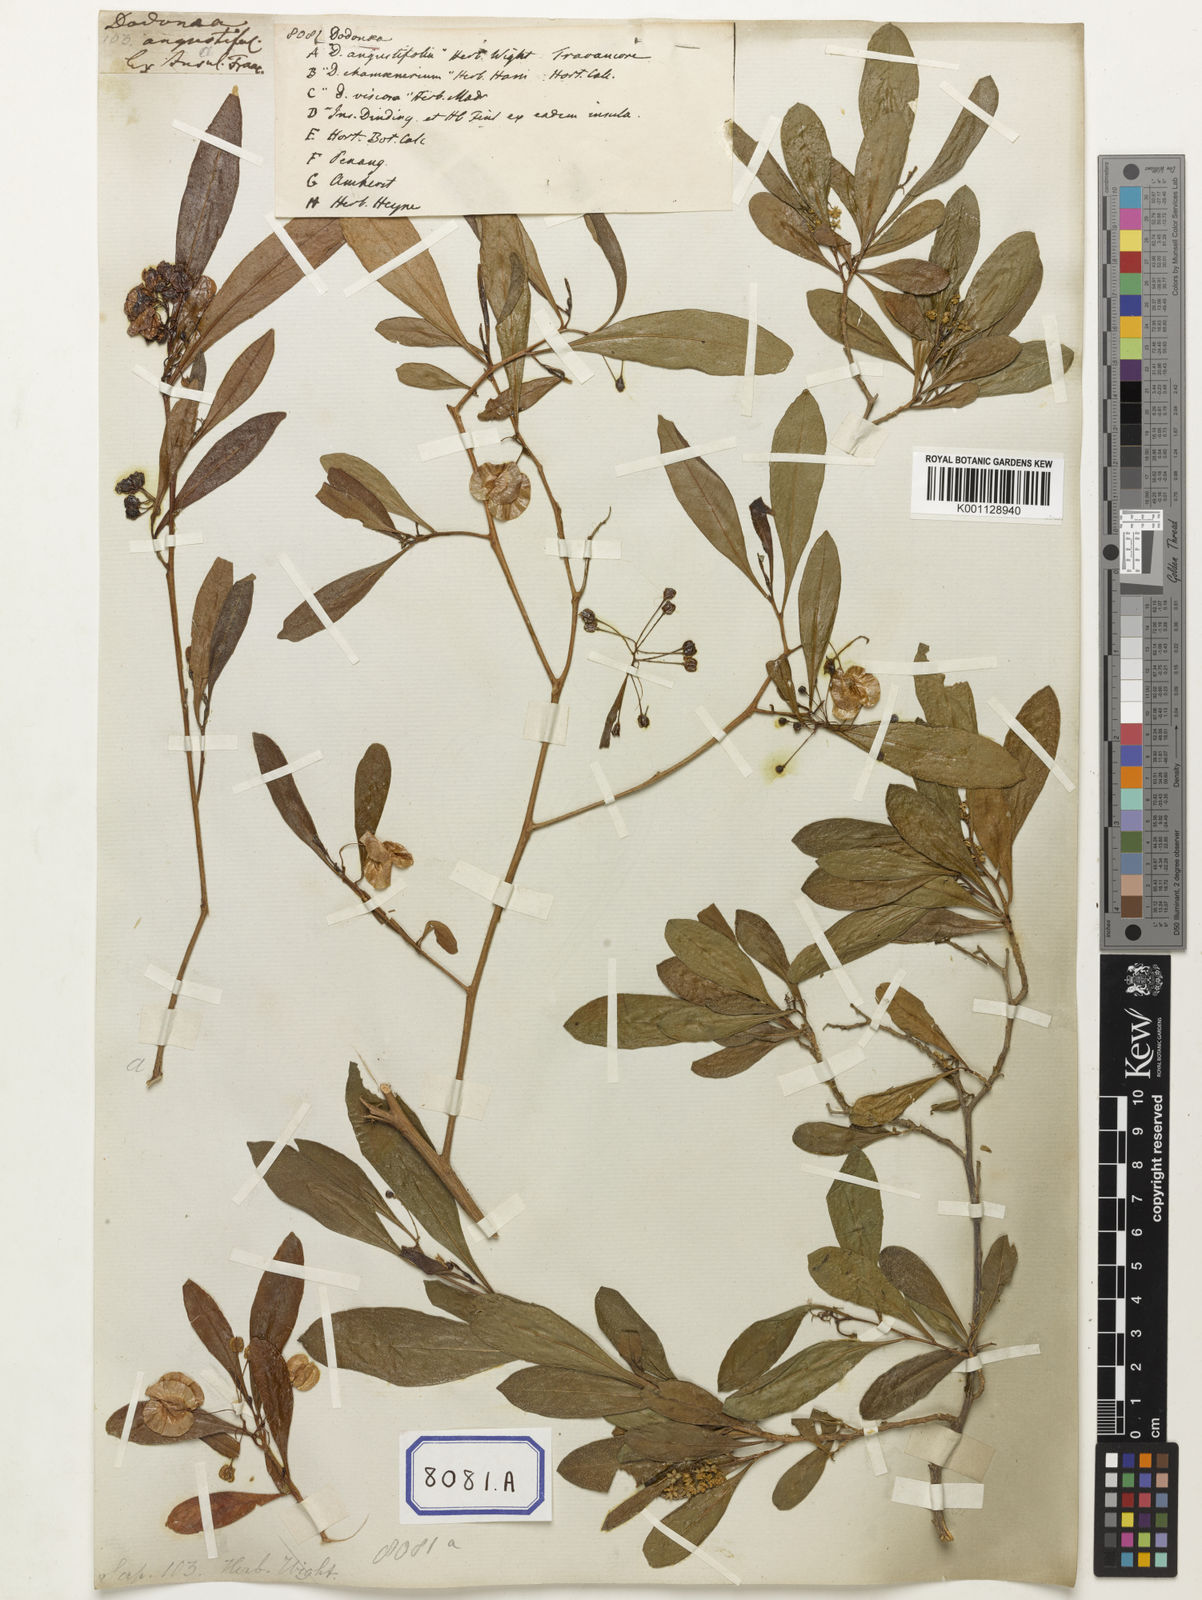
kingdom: Plantae
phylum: Tracheophyta
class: Magnoliopsida
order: Sapindales
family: Sapindaceae
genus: Dodonaea
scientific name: Dodonaea
